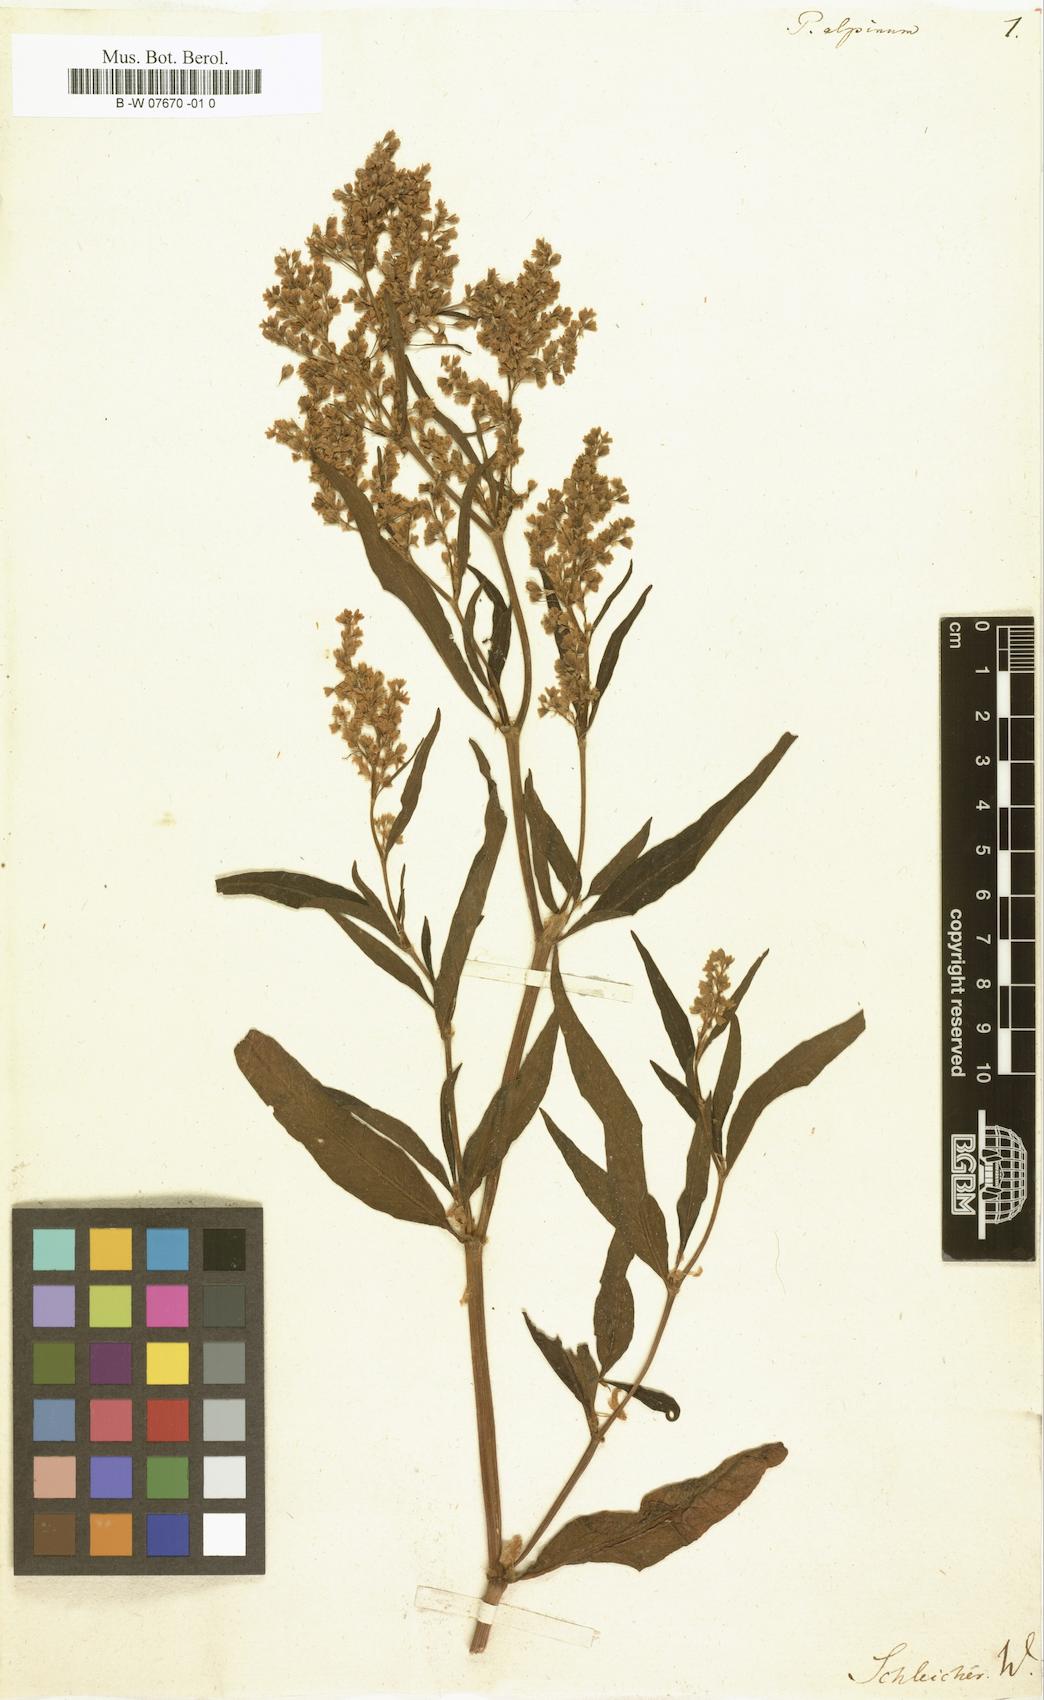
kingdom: Plantae
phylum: Tracheophyta
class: Magnoliopsida
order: Caryophyllales
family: Polygonaceae
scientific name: Polygonaceae
